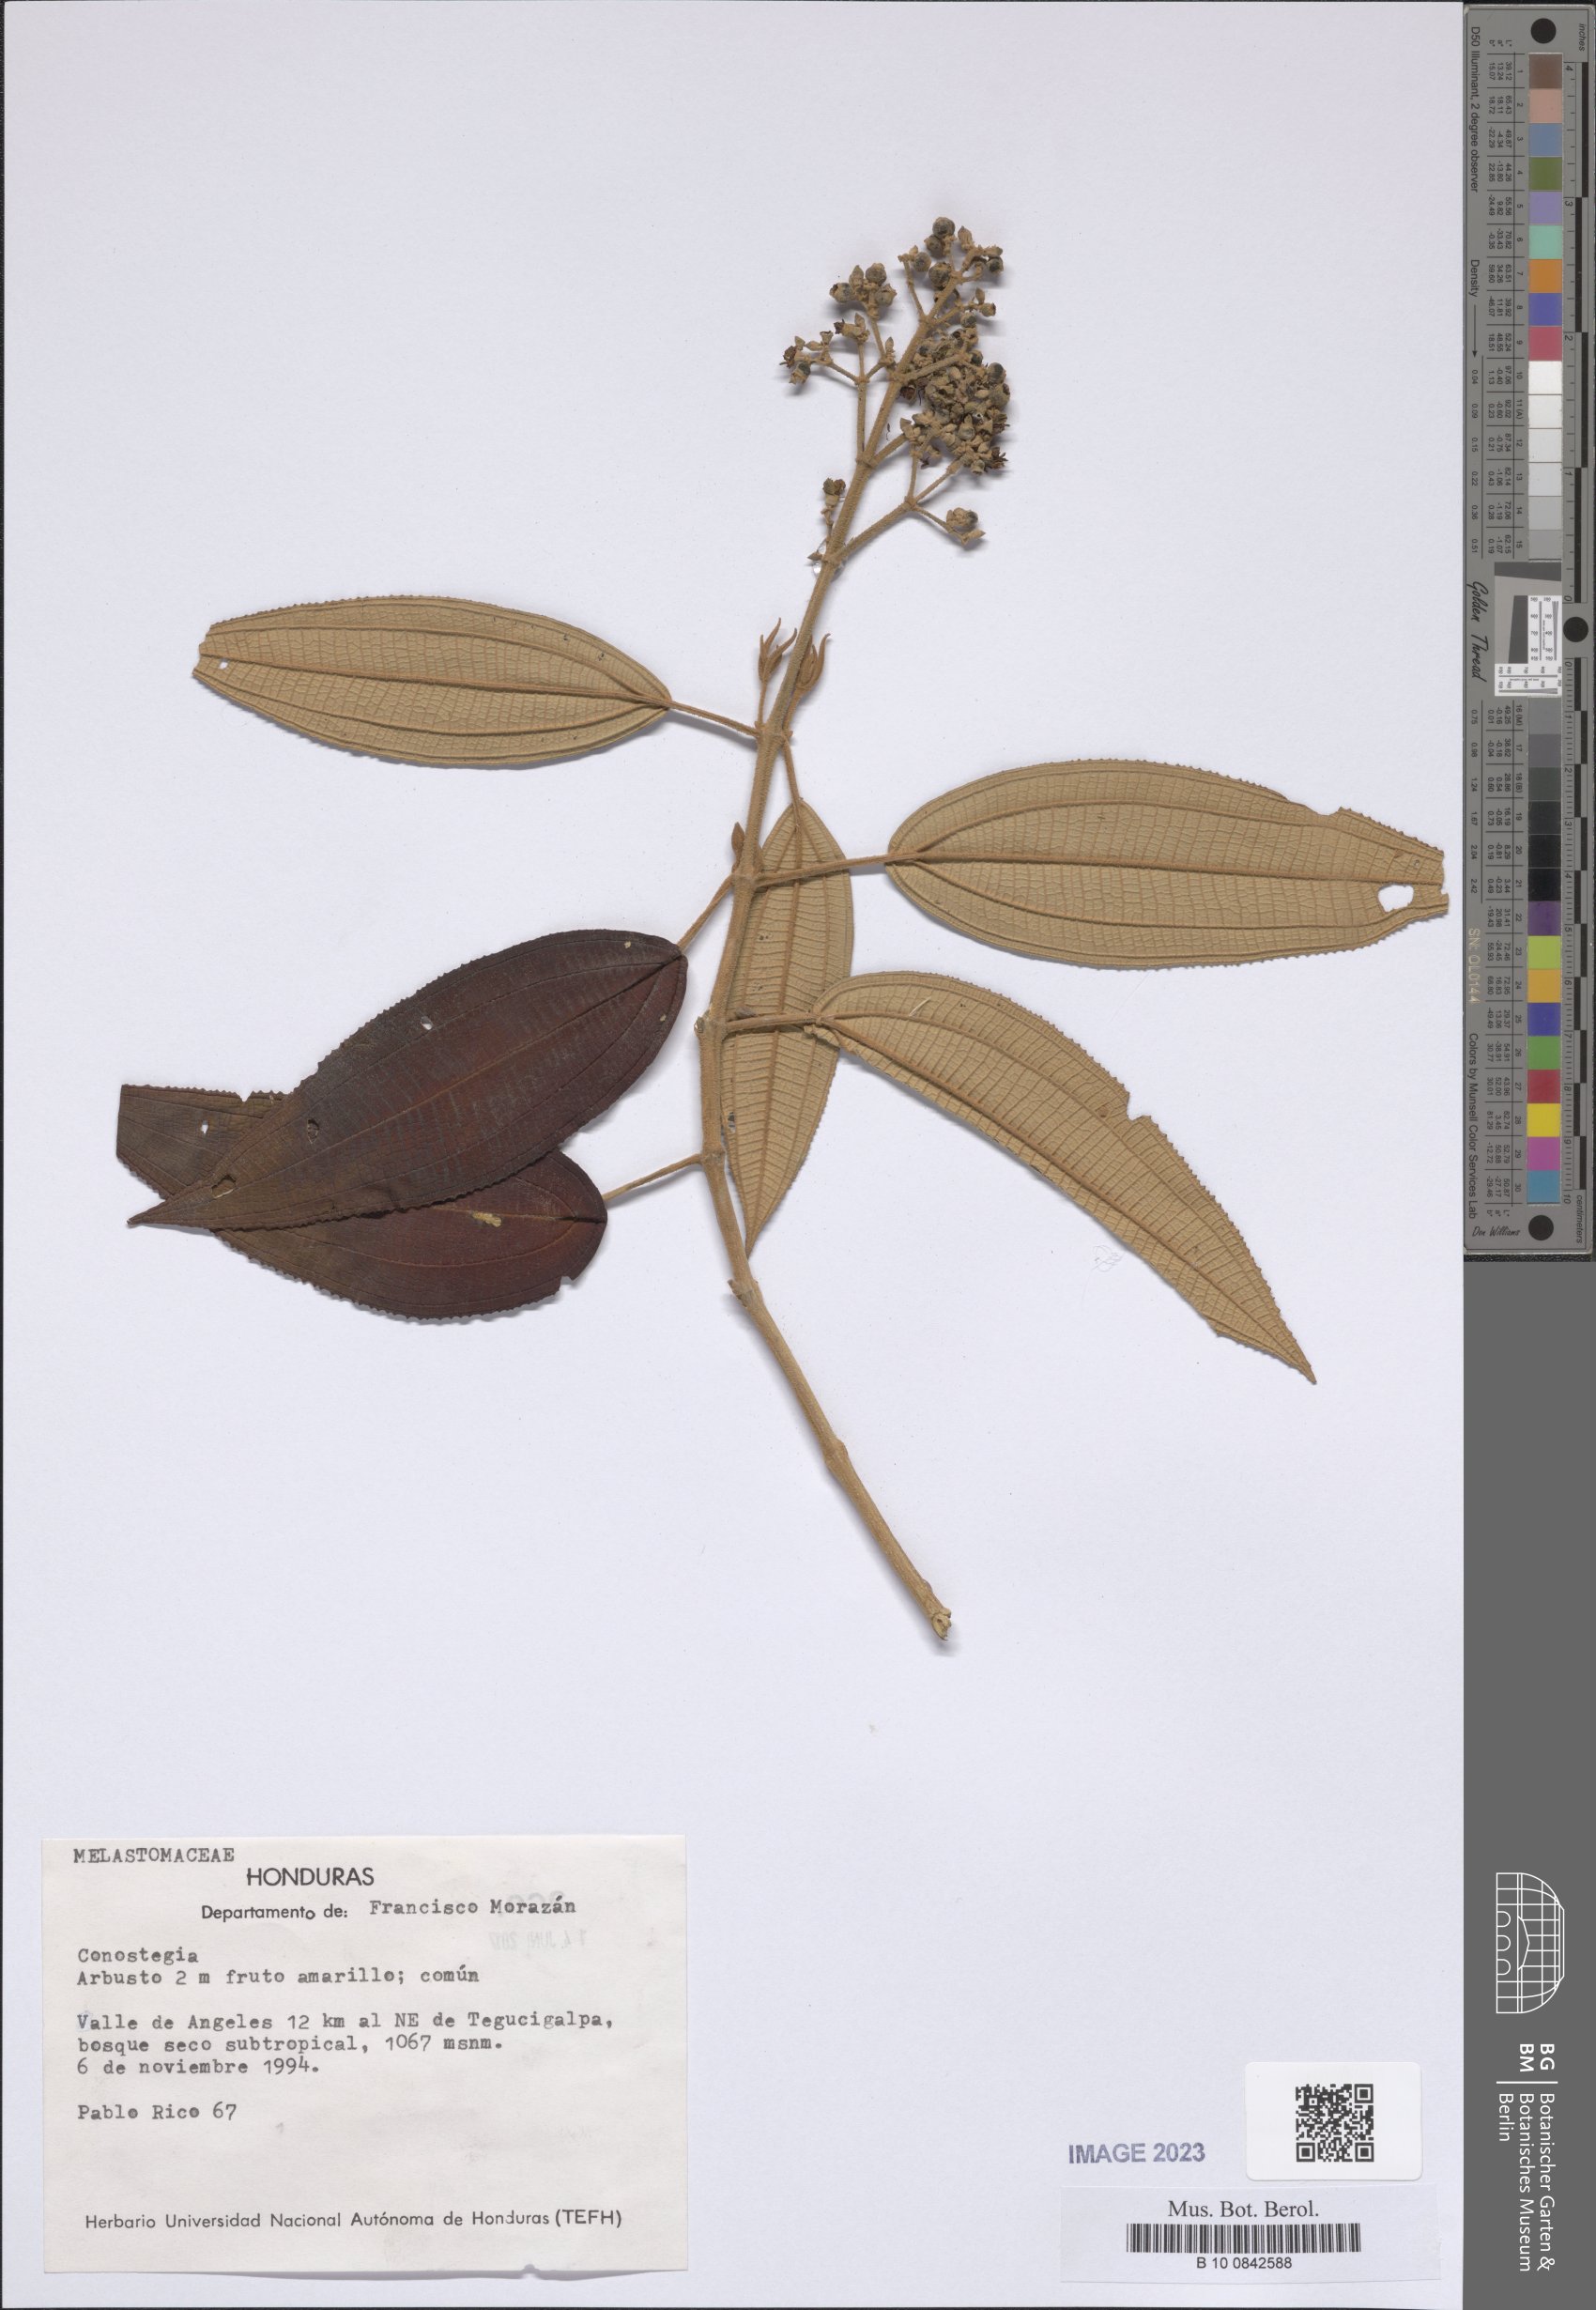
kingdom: Plantae
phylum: Tracheophyta
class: Magnoliopsida
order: Myrtales
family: Melastomataceae
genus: Miconia
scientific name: Miconia
